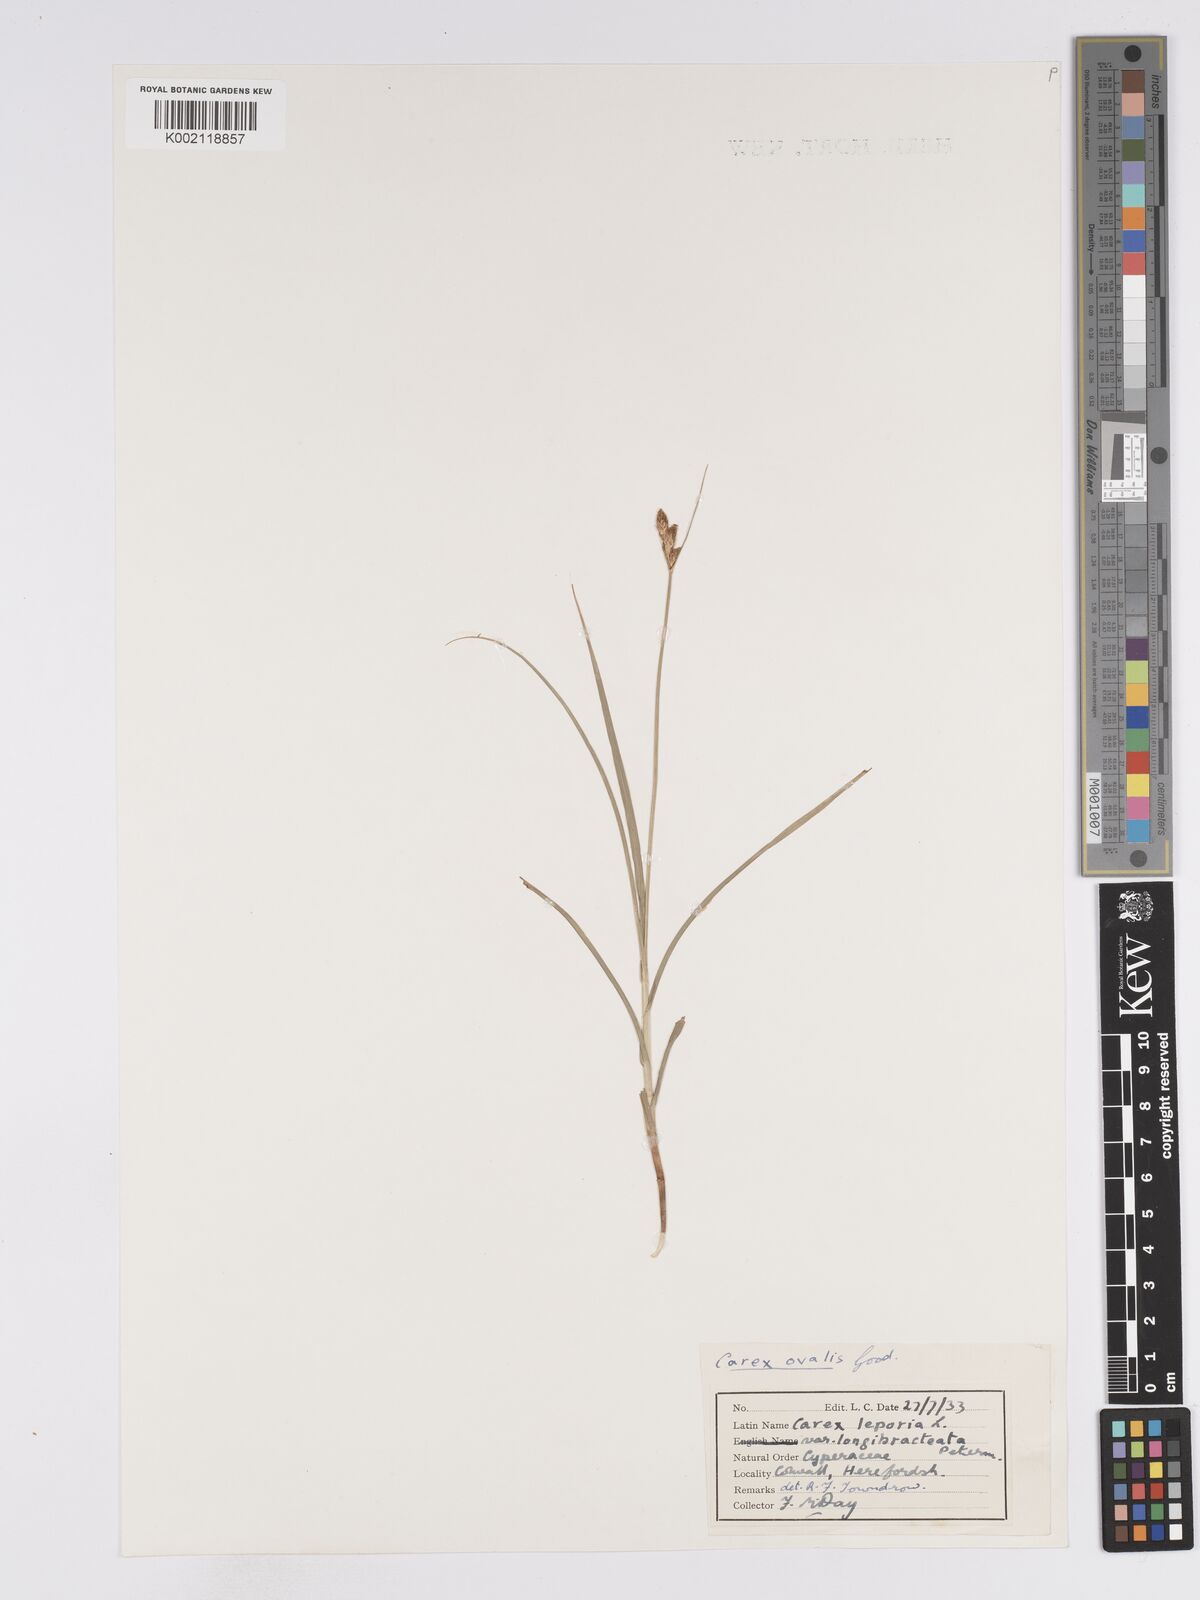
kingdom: Plantae
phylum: Tracheophyta
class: Liliopsida
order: Poales
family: Cyperaceae
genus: Carex
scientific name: Carex leporina
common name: Oval sedge
